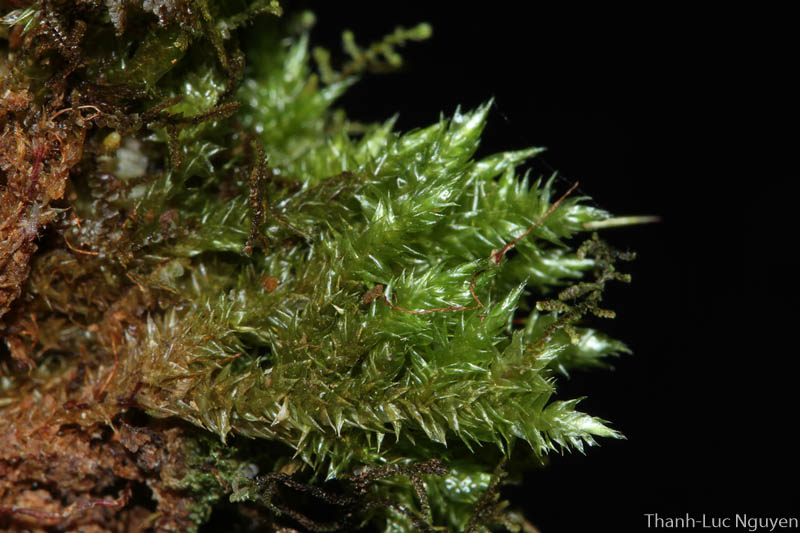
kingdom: Plantae
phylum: Bryophyta
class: Bryopsida
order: Hypnales
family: Sematophyllaceae
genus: Acroporium
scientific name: Acroporium
